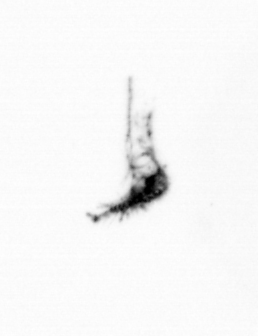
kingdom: Animalia
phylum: Arthropoda
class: Copepoda
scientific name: Copepoda
